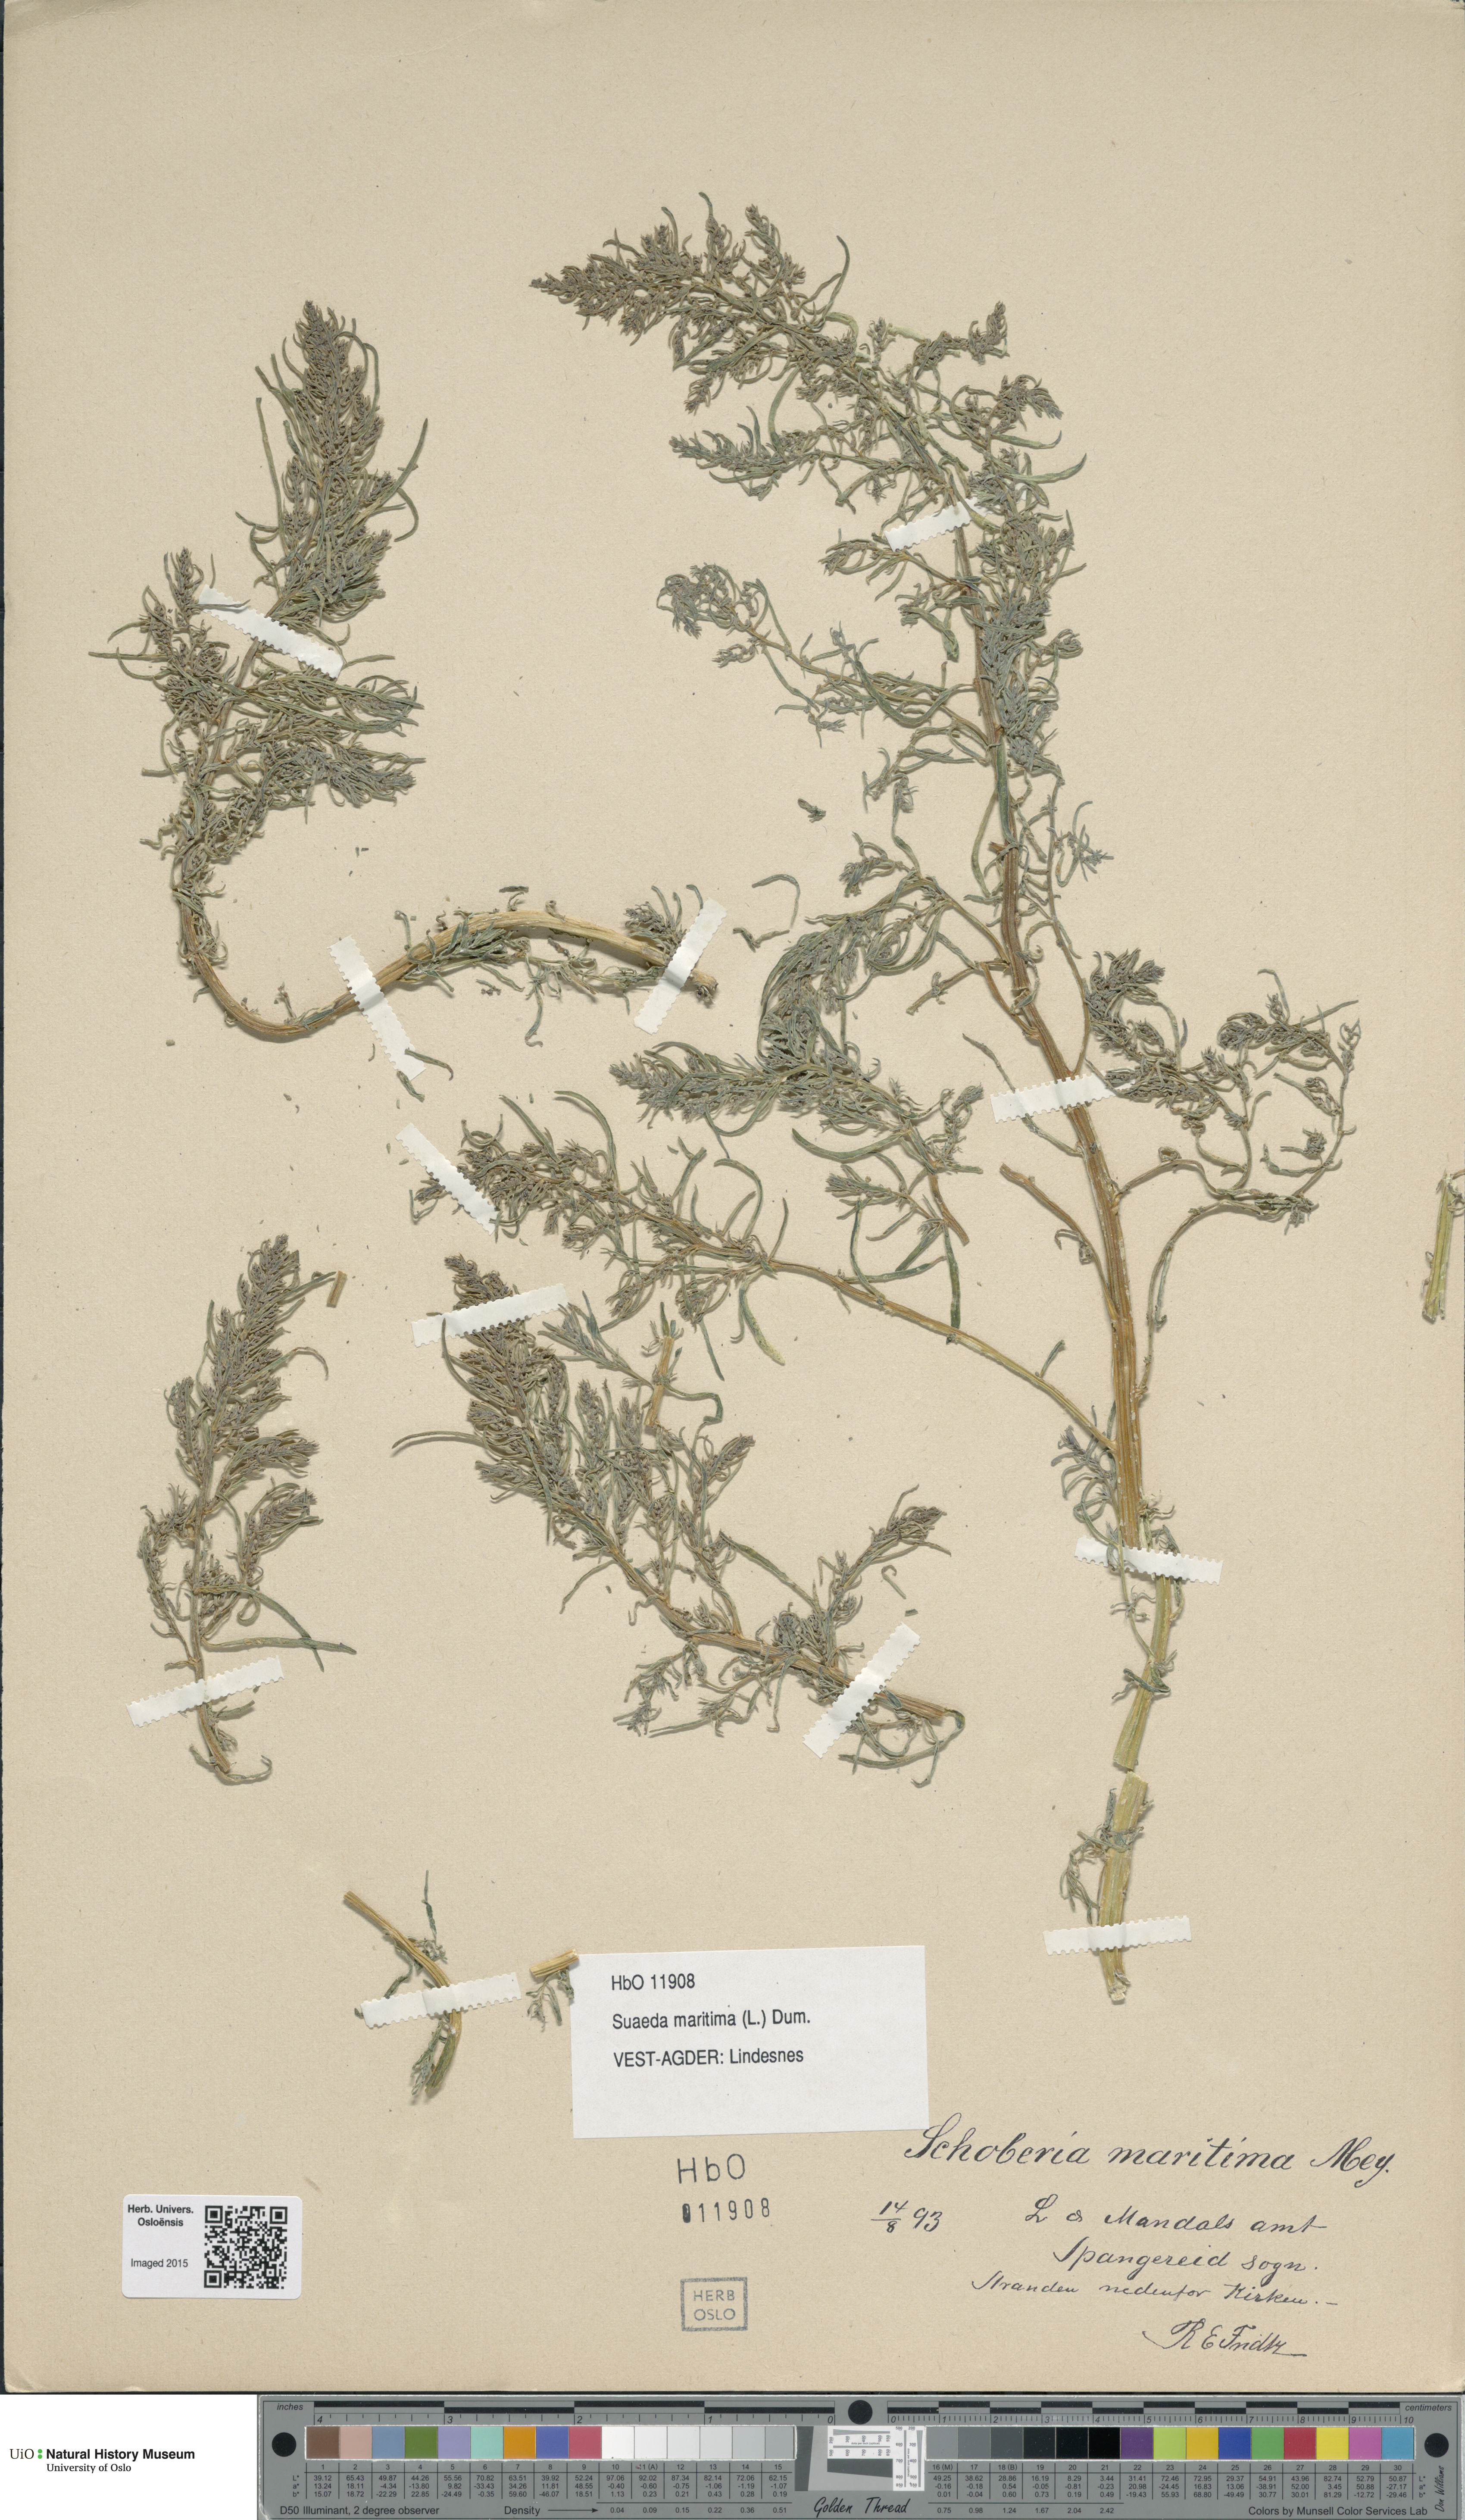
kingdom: Plantae
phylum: Tracheophyta
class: Magnoliopsida
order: Caryophyllales
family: Amaranthaceae
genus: Suaeda
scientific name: Suaeda maritima
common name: Annual sea-blite
